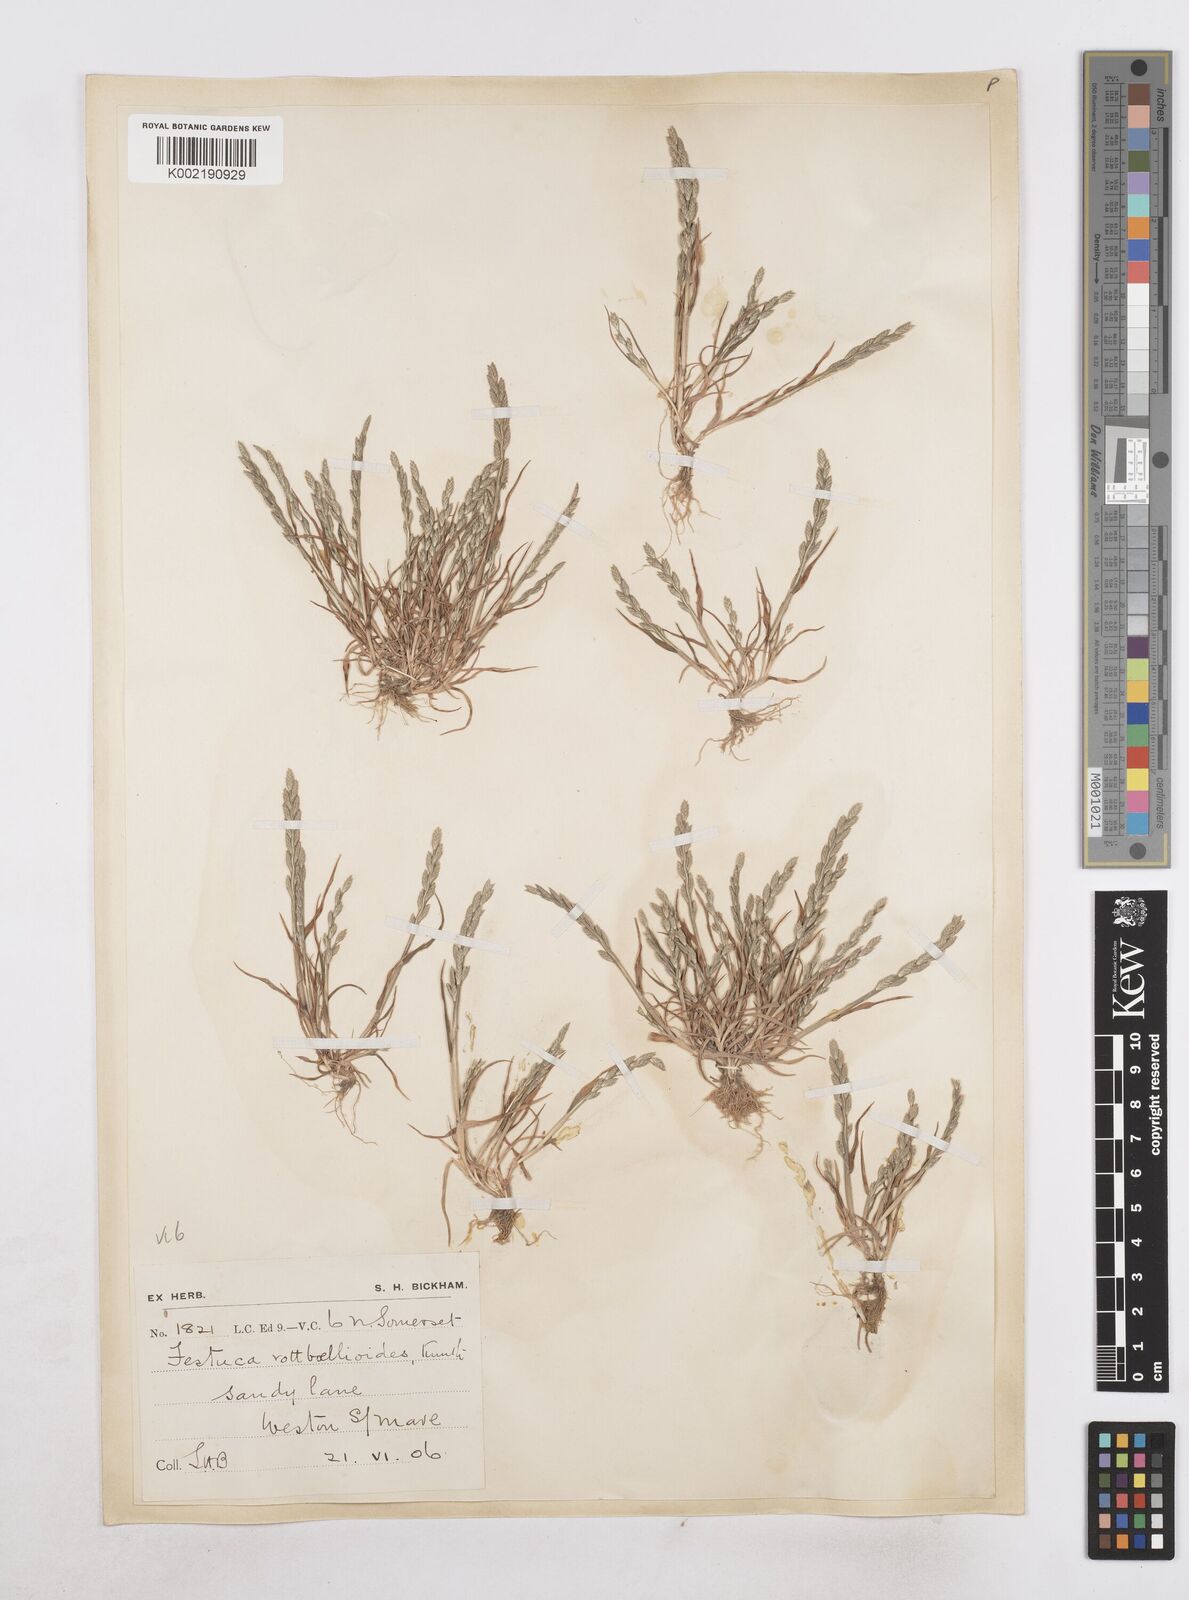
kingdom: Plantae
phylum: Tracheophyta
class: Liliopsida
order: Poales
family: Poaceae
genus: Catapodium
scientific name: Catapodium marinum
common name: Sea fern-grass
